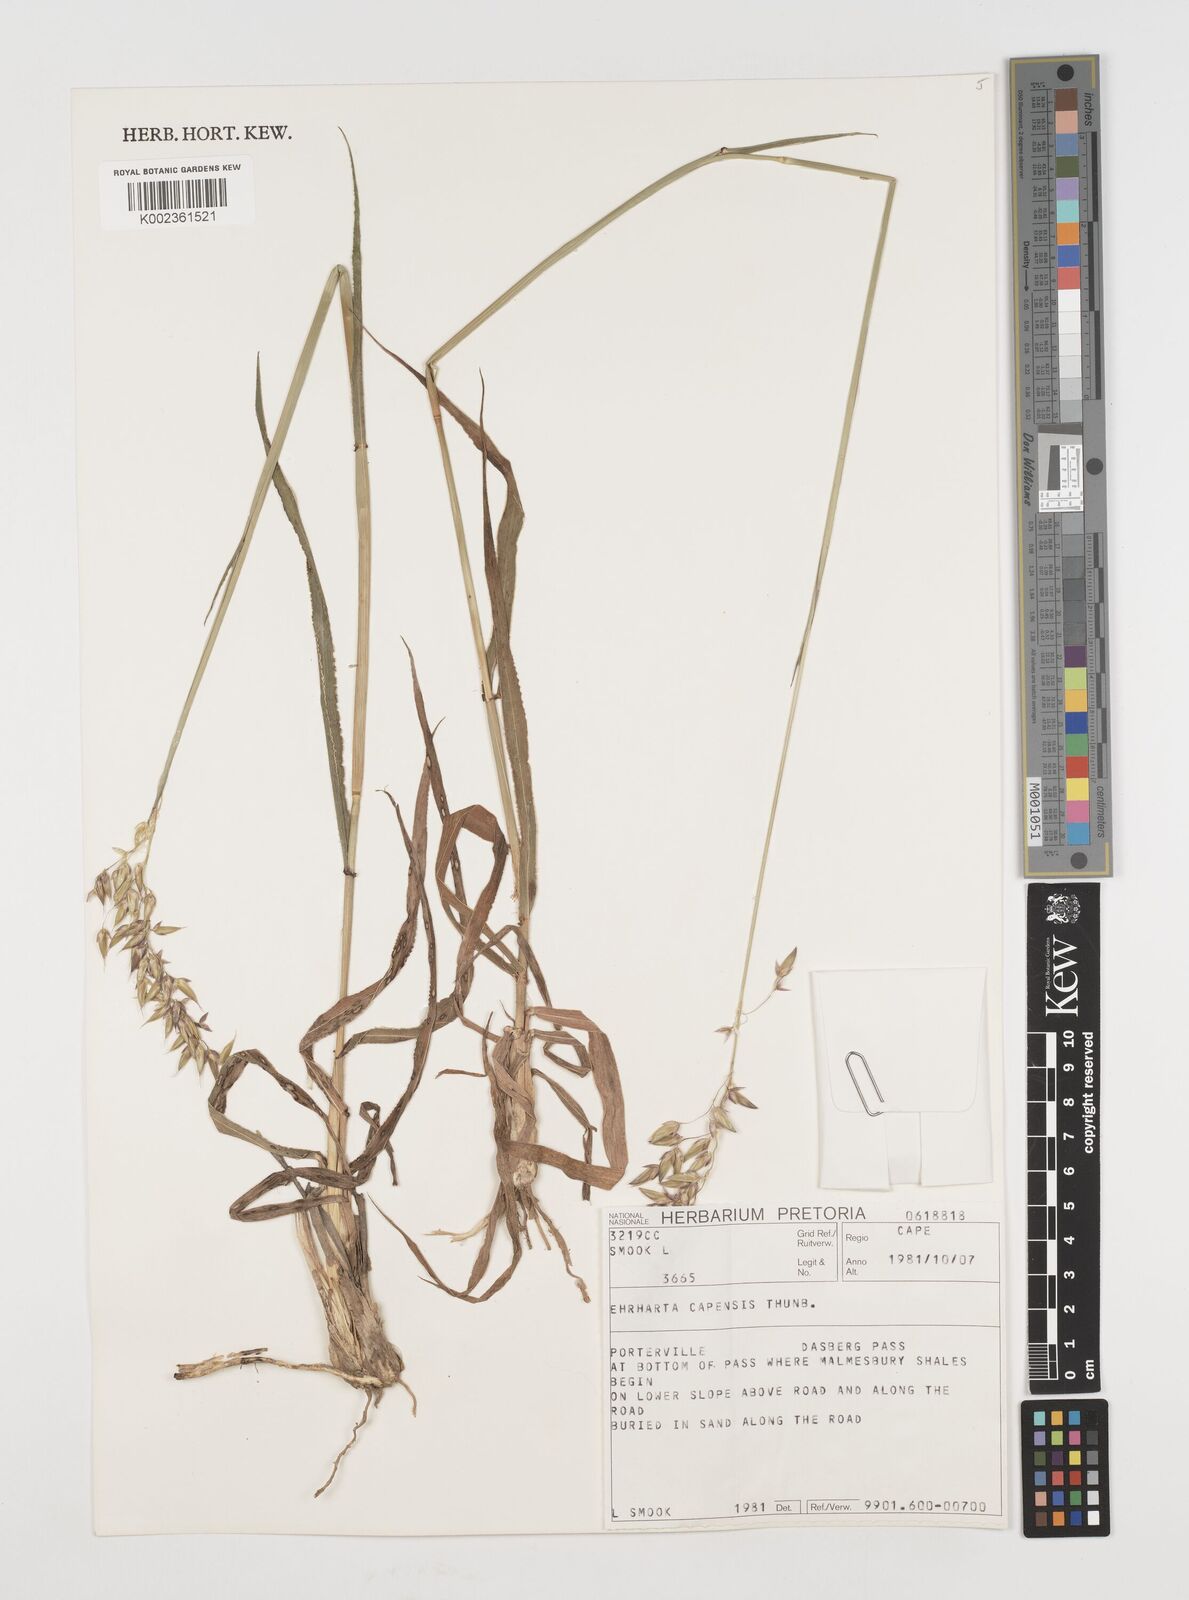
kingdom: Plantae
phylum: Tracheophyta
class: Liliopsida
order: Poales
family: Poaceae
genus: Ehrharta
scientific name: Ehrharta capensis
